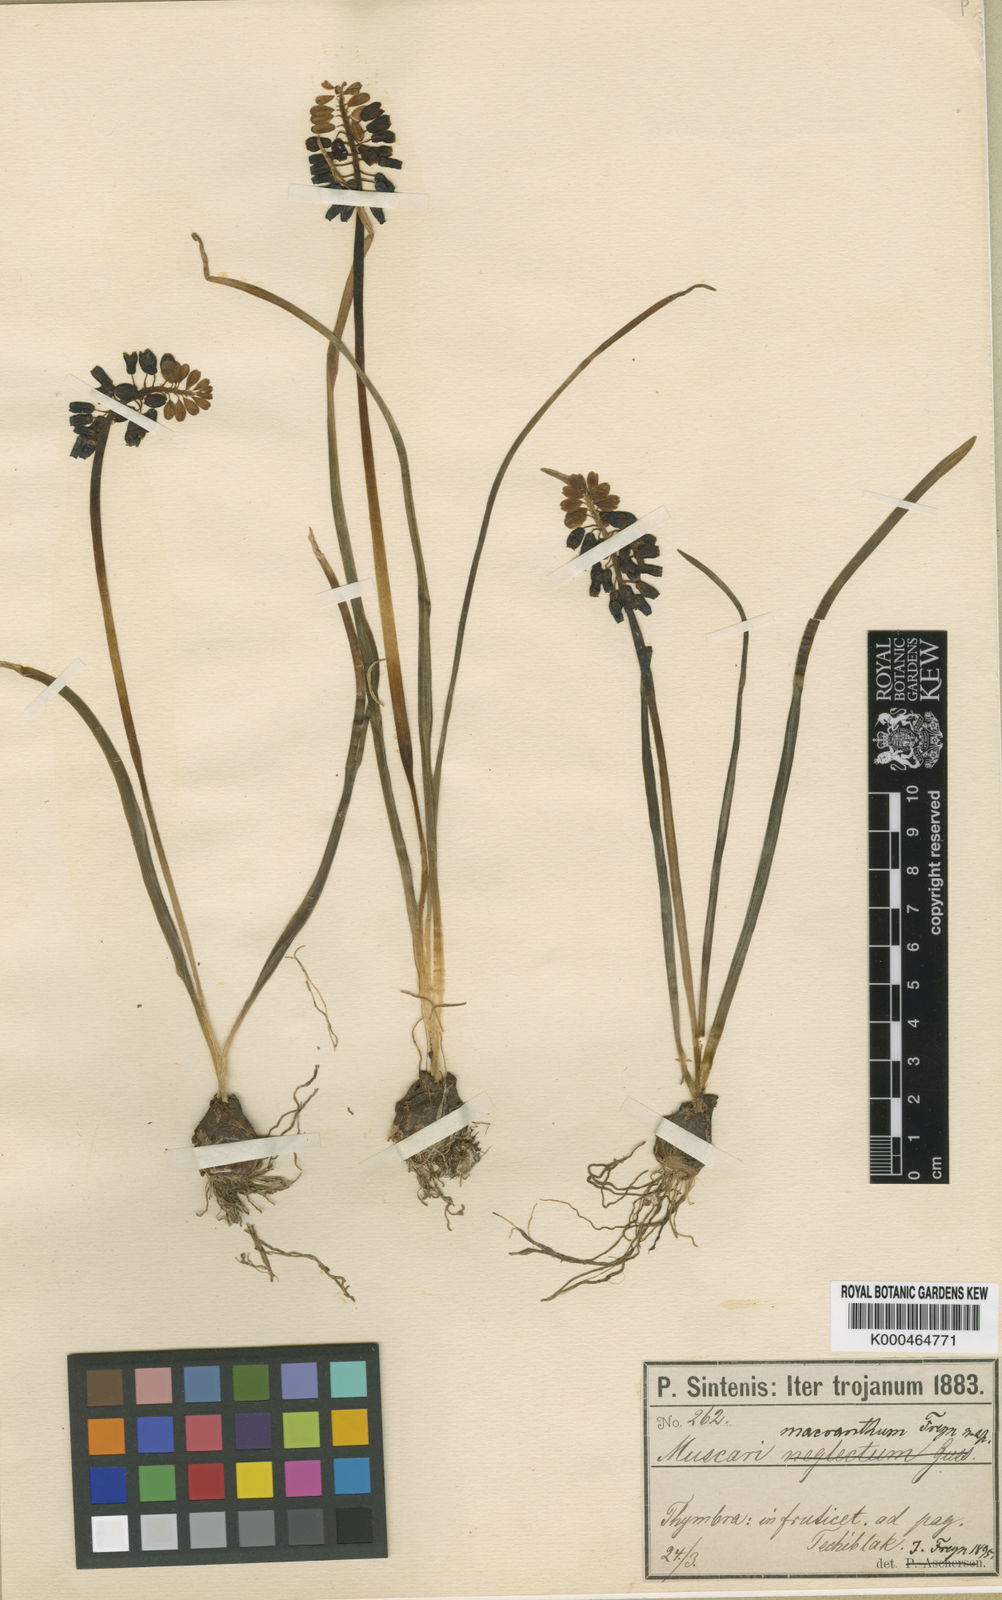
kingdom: Plantae
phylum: Tracheophyta
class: Liliopsida
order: Asparagales
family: Asparagaceae
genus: Muscari
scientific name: Muscari neglectum
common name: Grape-hyacinth
